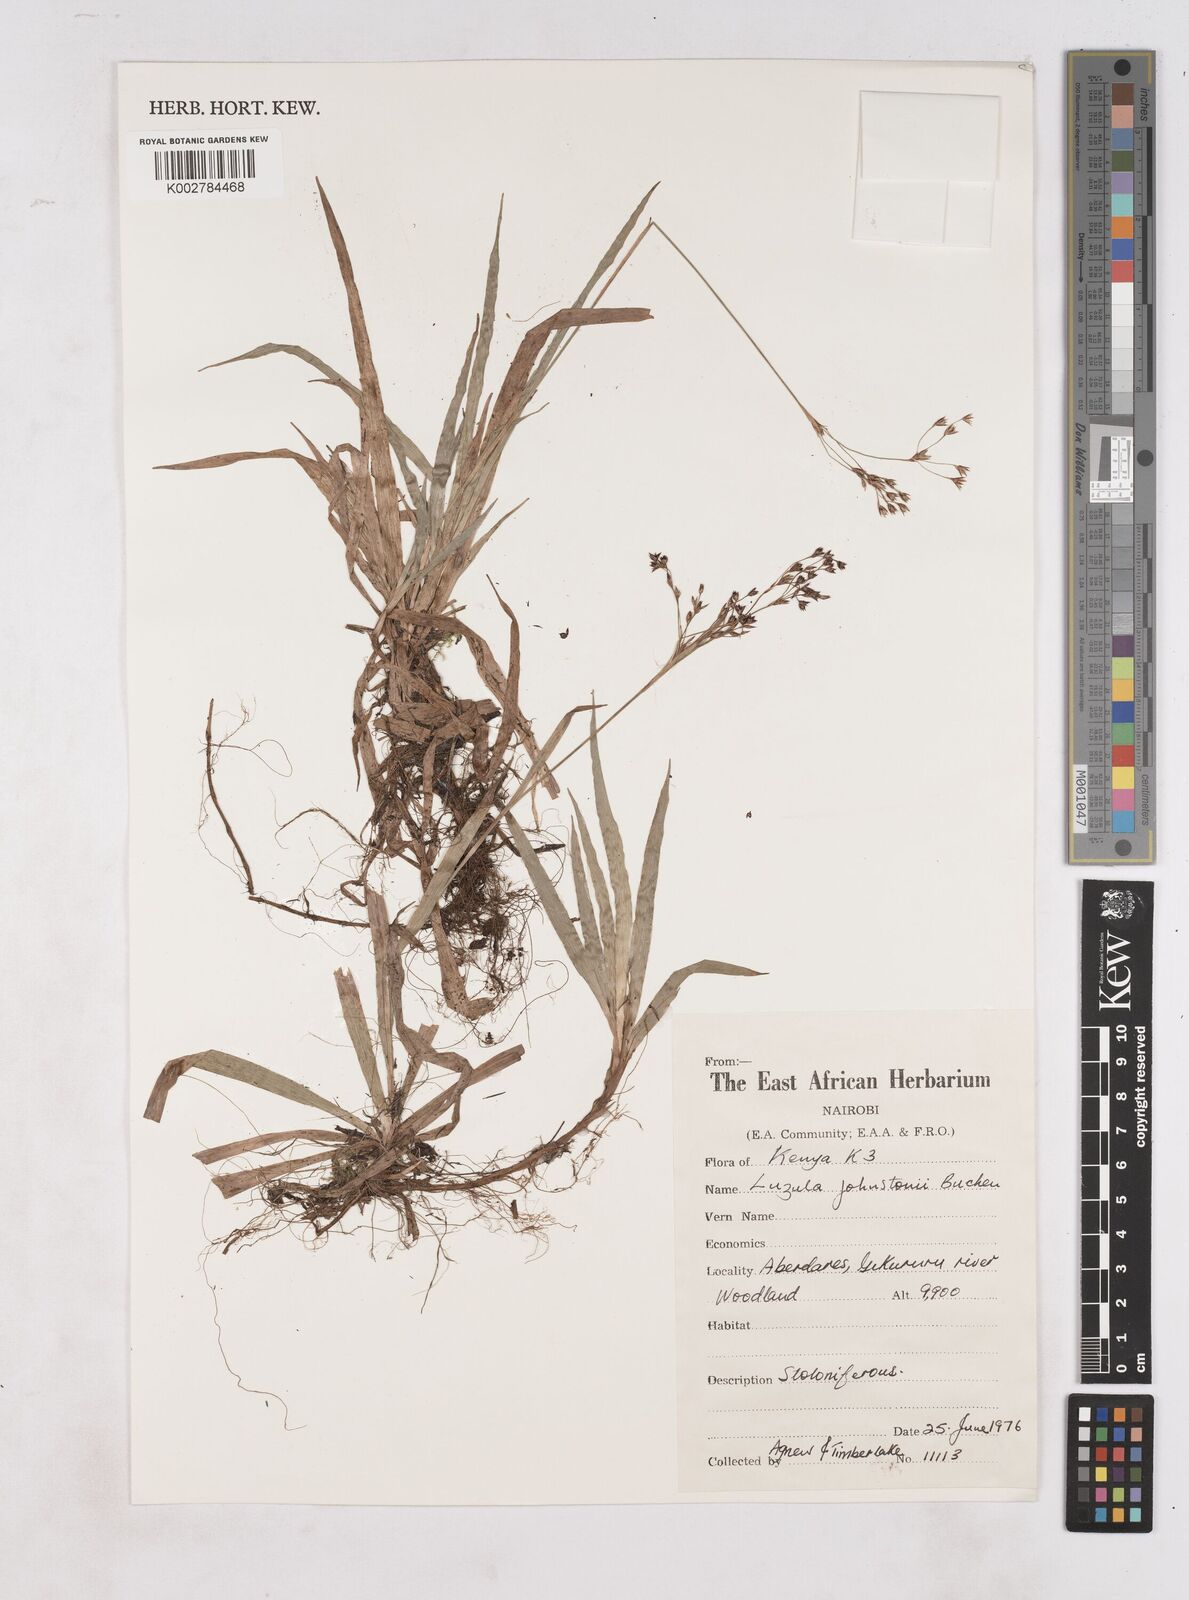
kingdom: Plantae
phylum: Tracheophyta
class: Liliopsida
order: Poales
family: Juncaceae
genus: Luzula
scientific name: Luzula johnstonii
